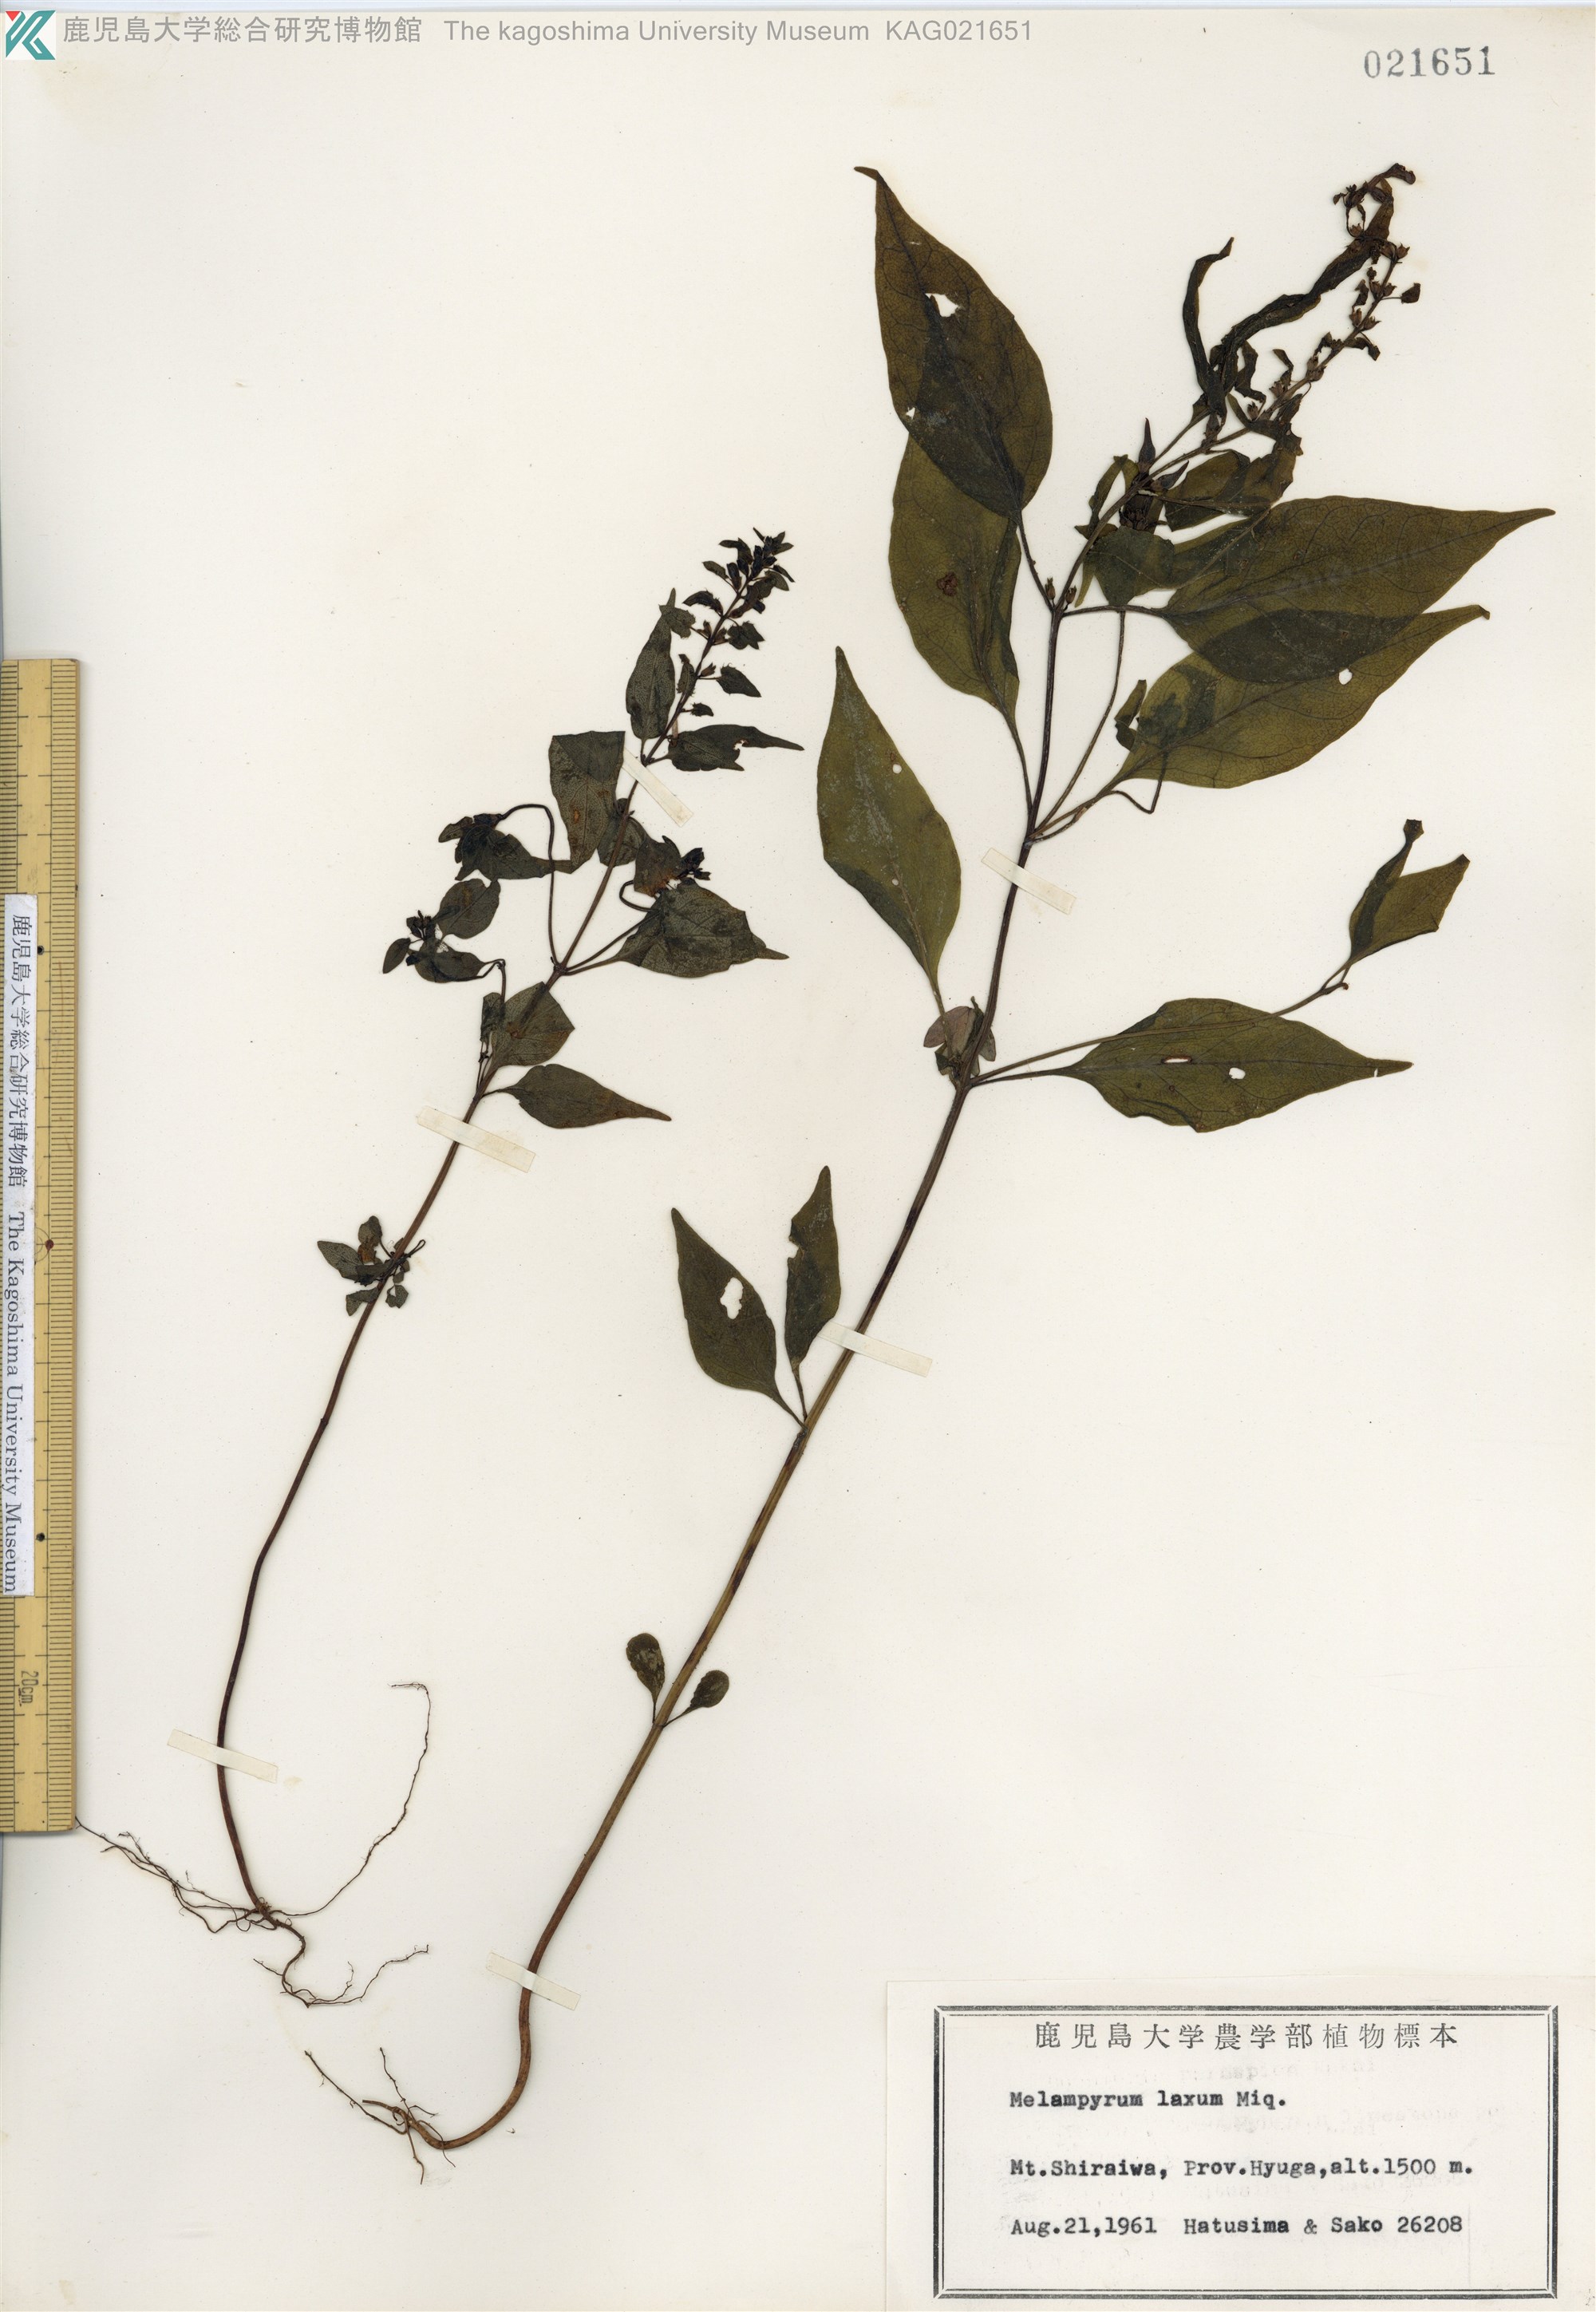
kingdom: Plantae
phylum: Tracheophyta
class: Magnoliopsida
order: Lamiales
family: Orobanchaceae
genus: Melampyrum
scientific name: Melampyrum laxum
